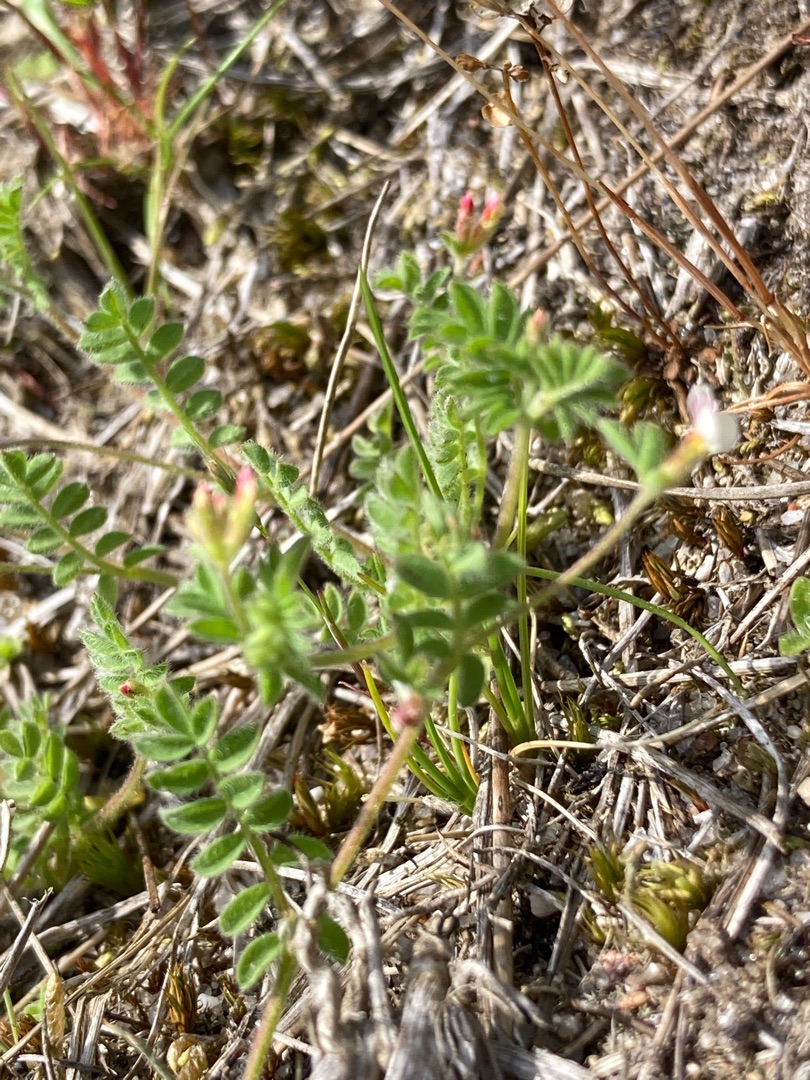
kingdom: Plantae
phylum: Tracheophyta
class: Magnoliopsida
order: Fabales
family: Fabaceae
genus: Ornithopus
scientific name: Ornithopus perpusillus
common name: Liden fugleklo
